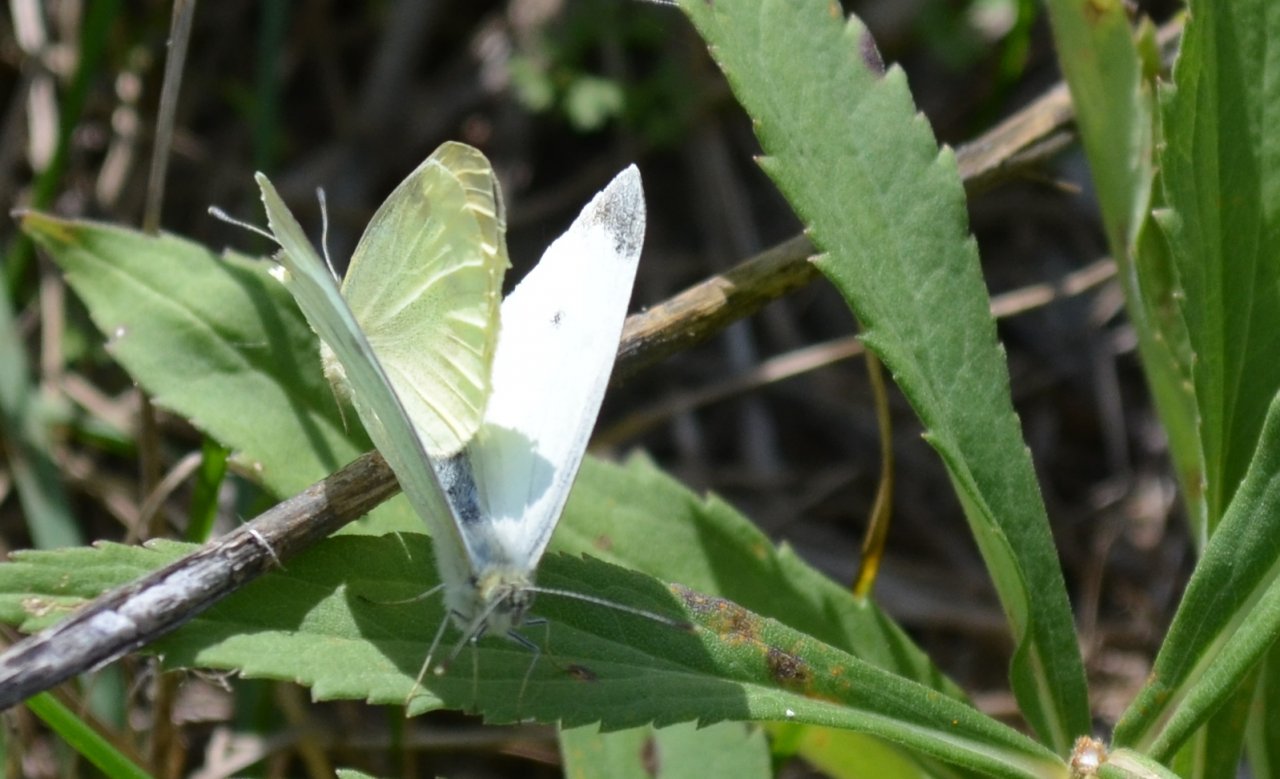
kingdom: Animalia
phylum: Arthropoda
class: Insecta
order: Lepidoptera
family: Pieridae
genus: Pieris
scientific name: Pieris rapae
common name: Cabbage White
